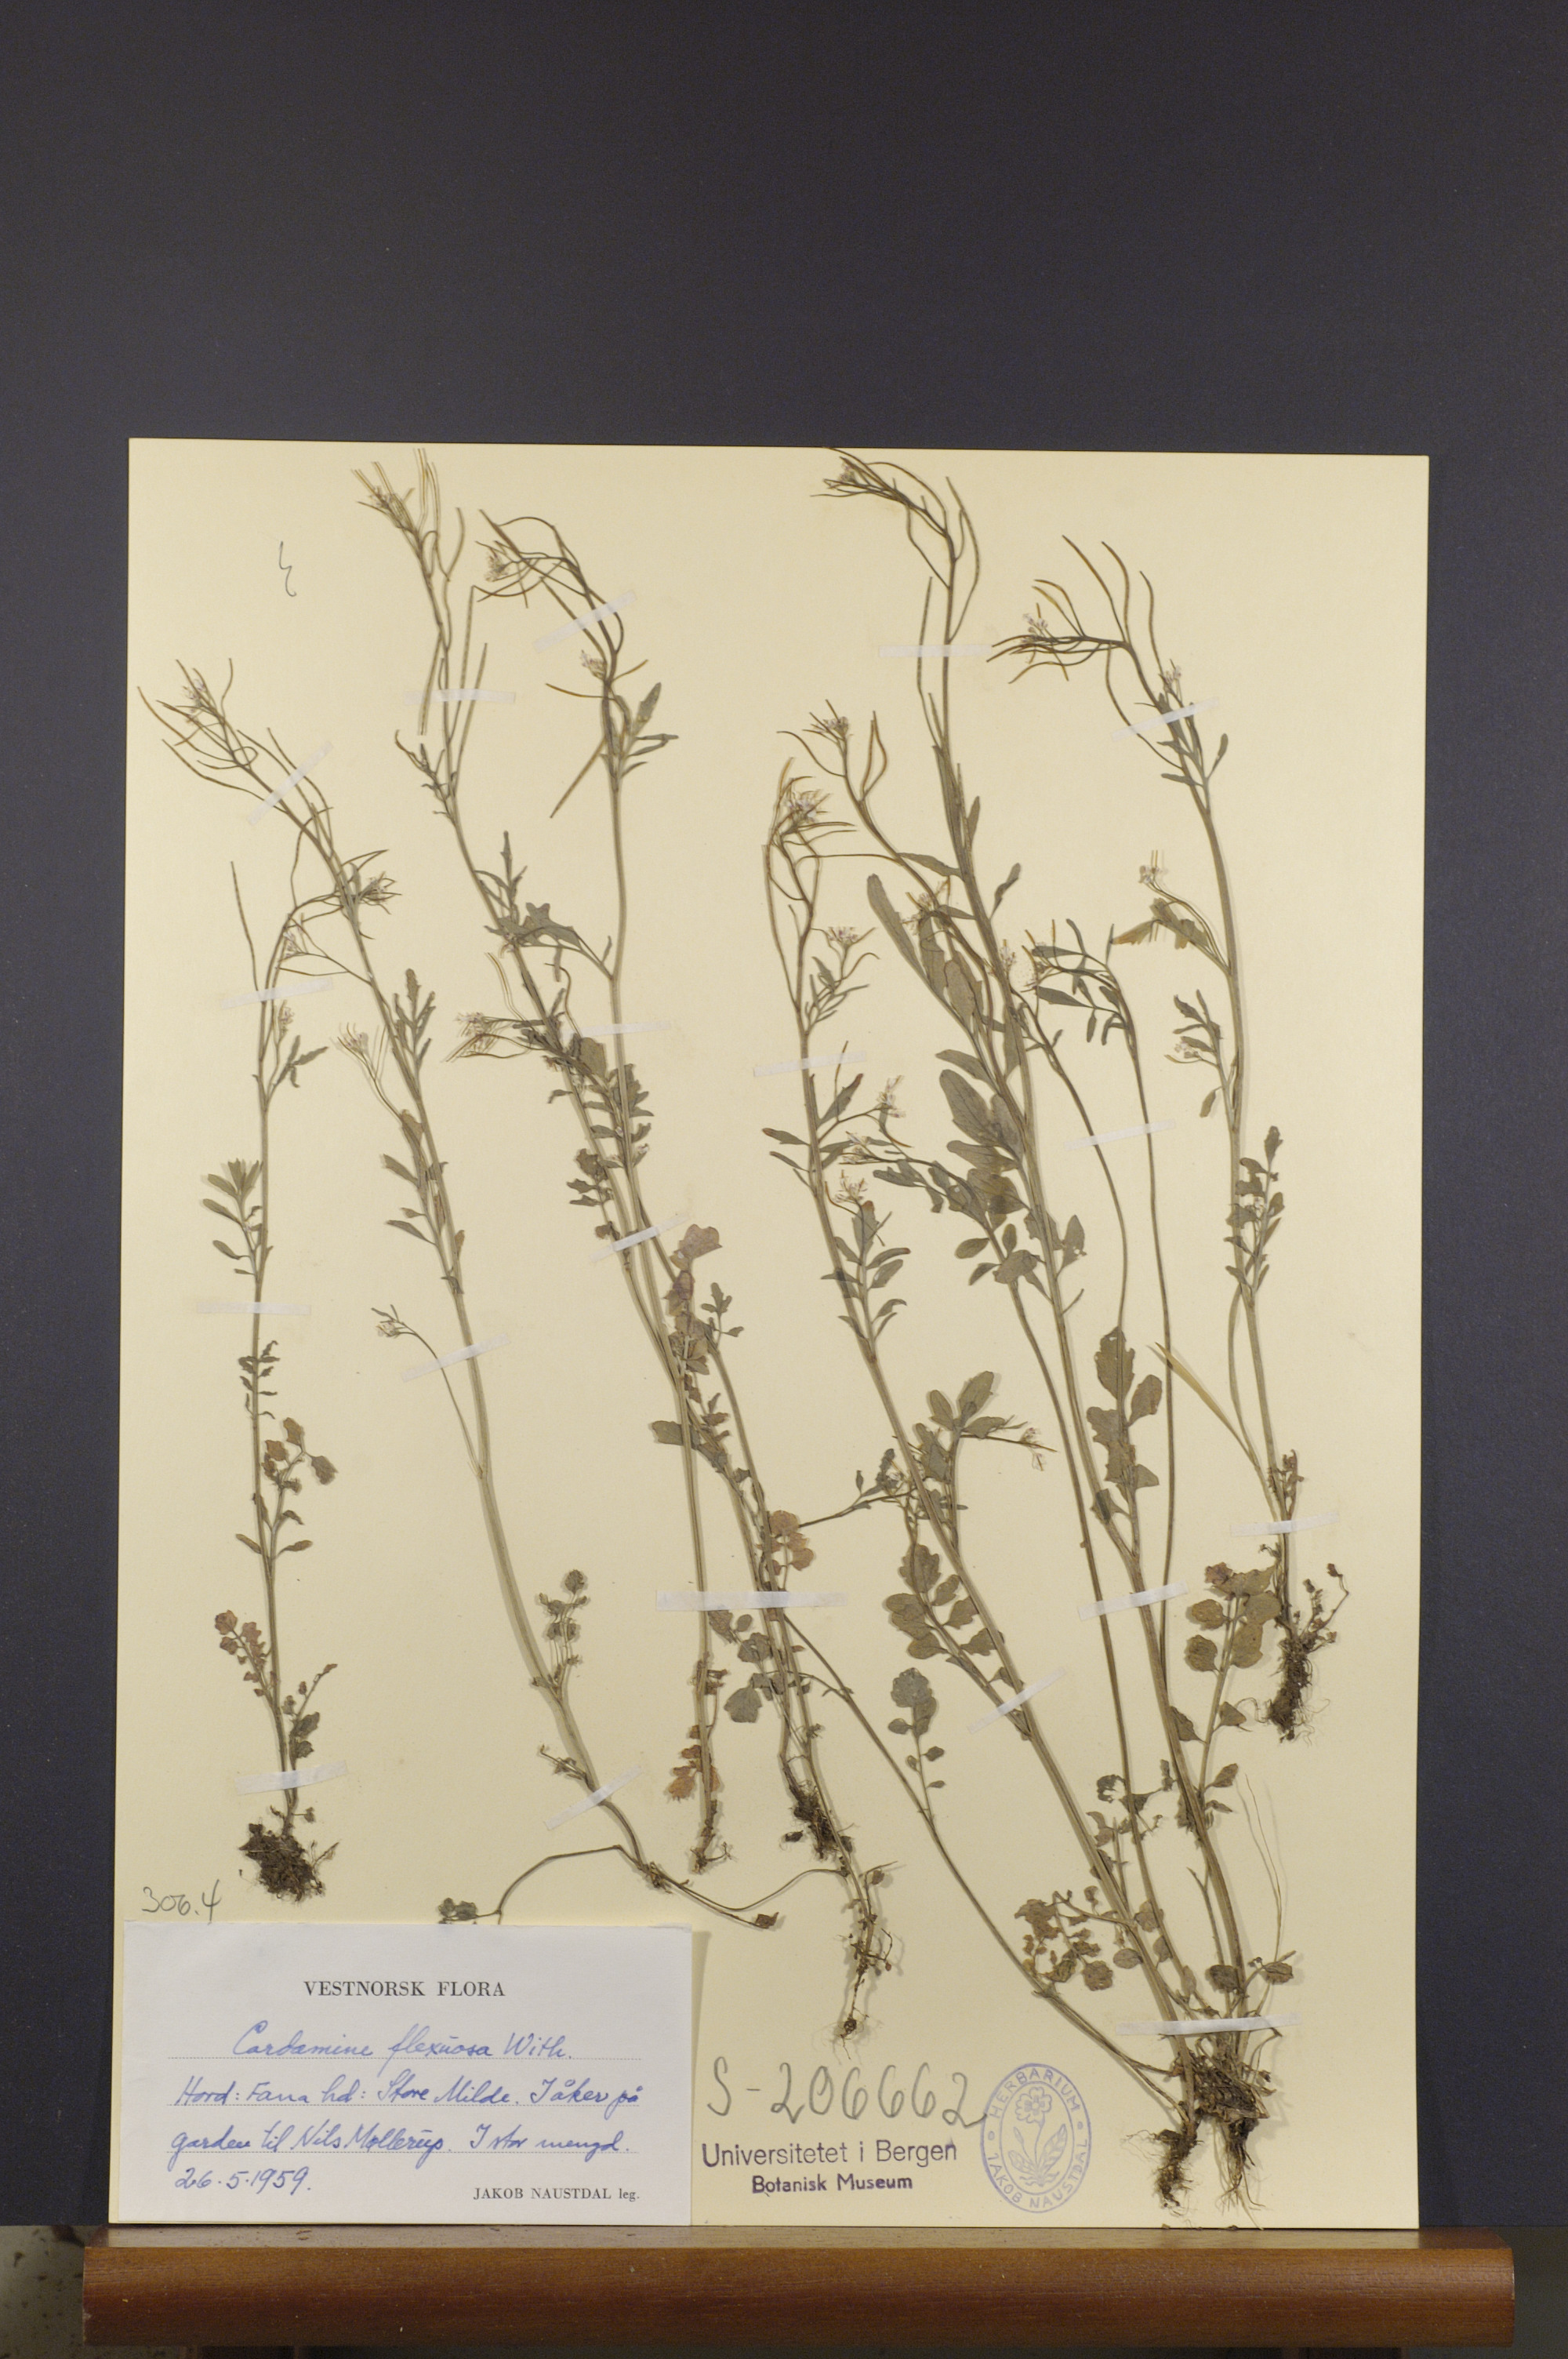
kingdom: Plantae
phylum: Tracheophyta
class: Magnoliopsida
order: Brassicales
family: Brassicaceae
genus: Cardamine
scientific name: Cardamine flexuosa
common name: Woodland bittercress
